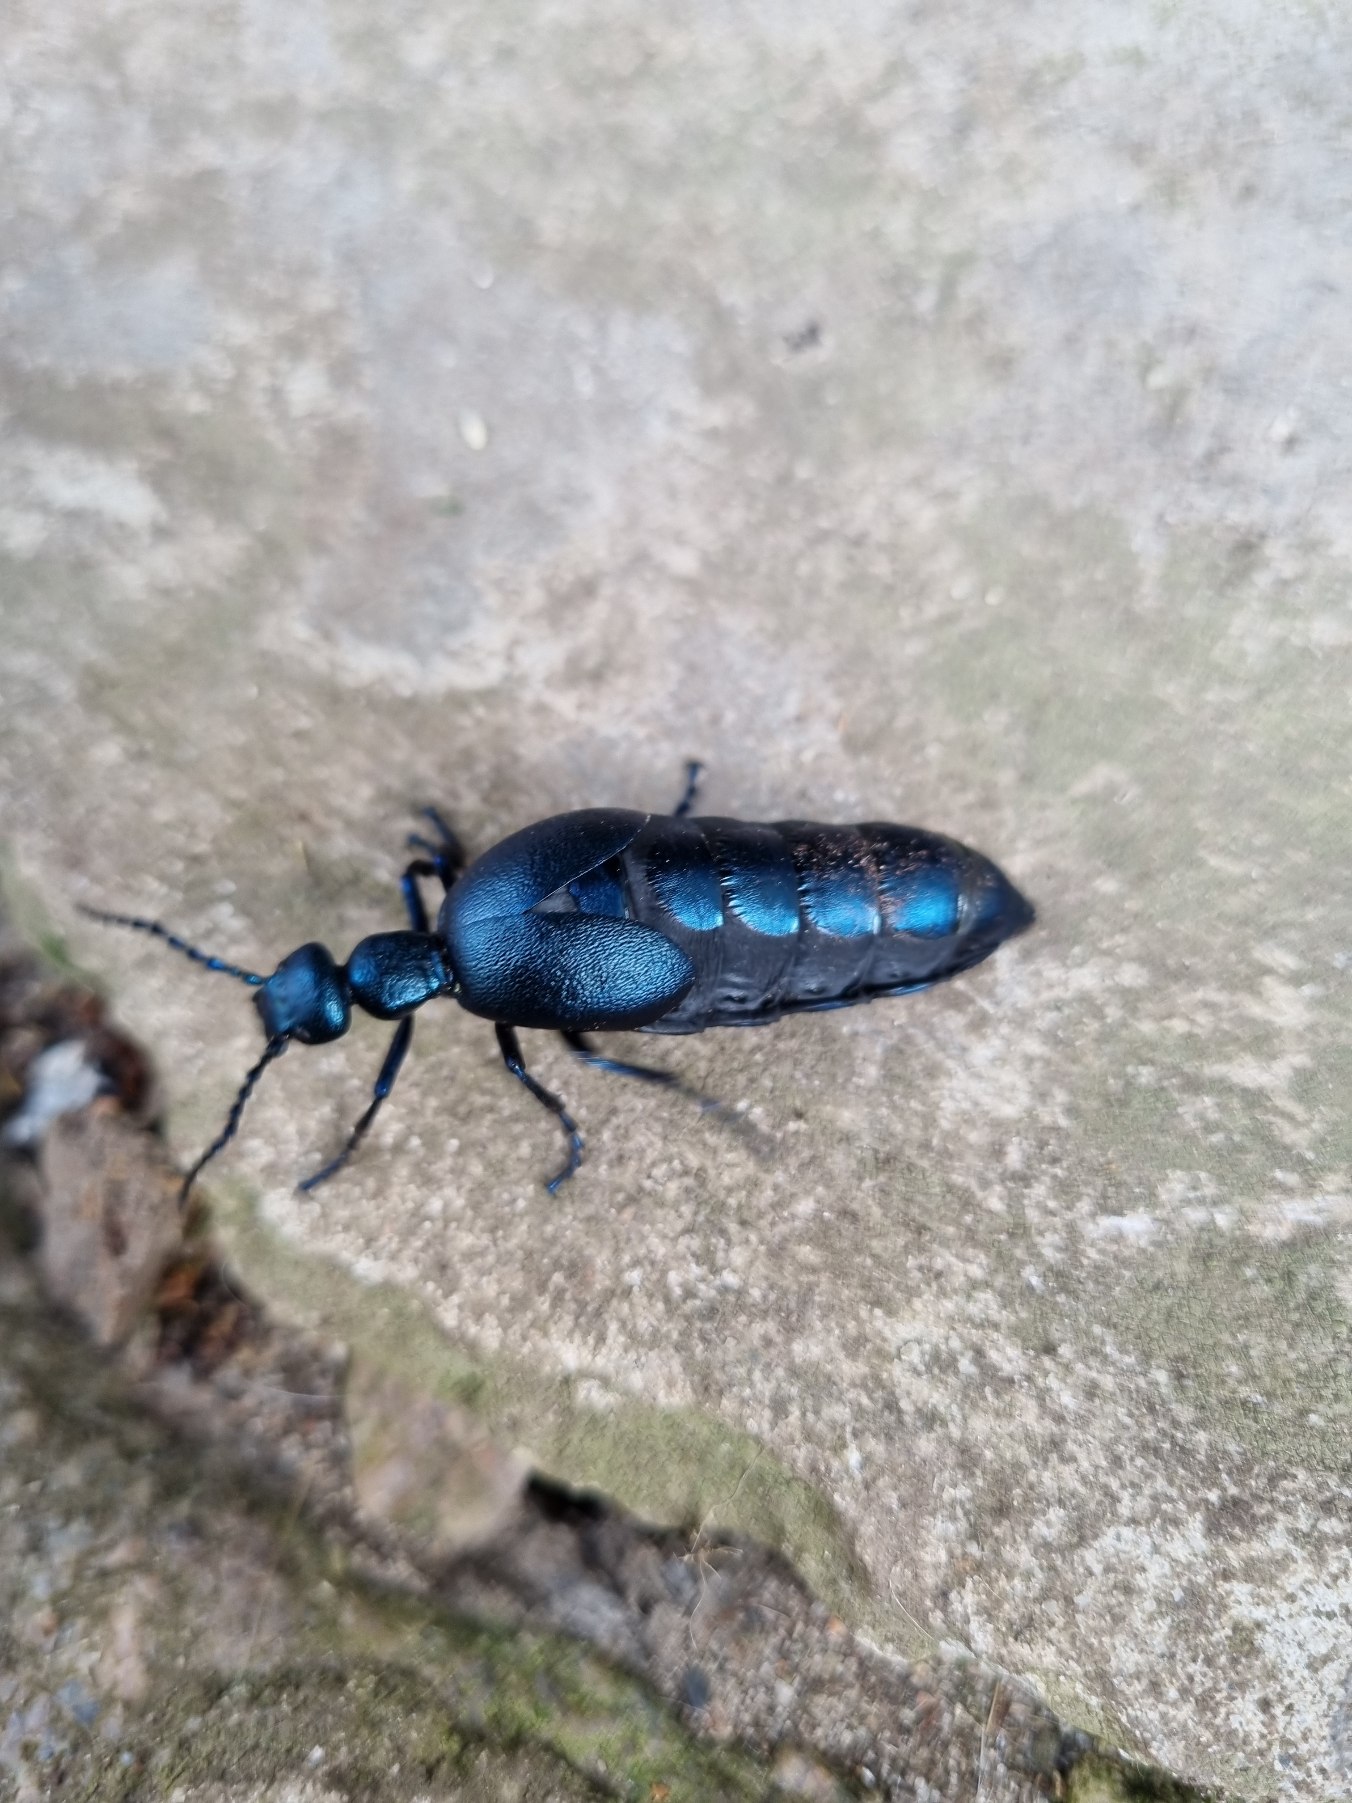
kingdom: Animalia
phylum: Arthropoda
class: Insecta
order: Coleoptera
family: Meloidae
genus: Meloe
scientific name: Meloe violaceus
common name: Blå oliebille
